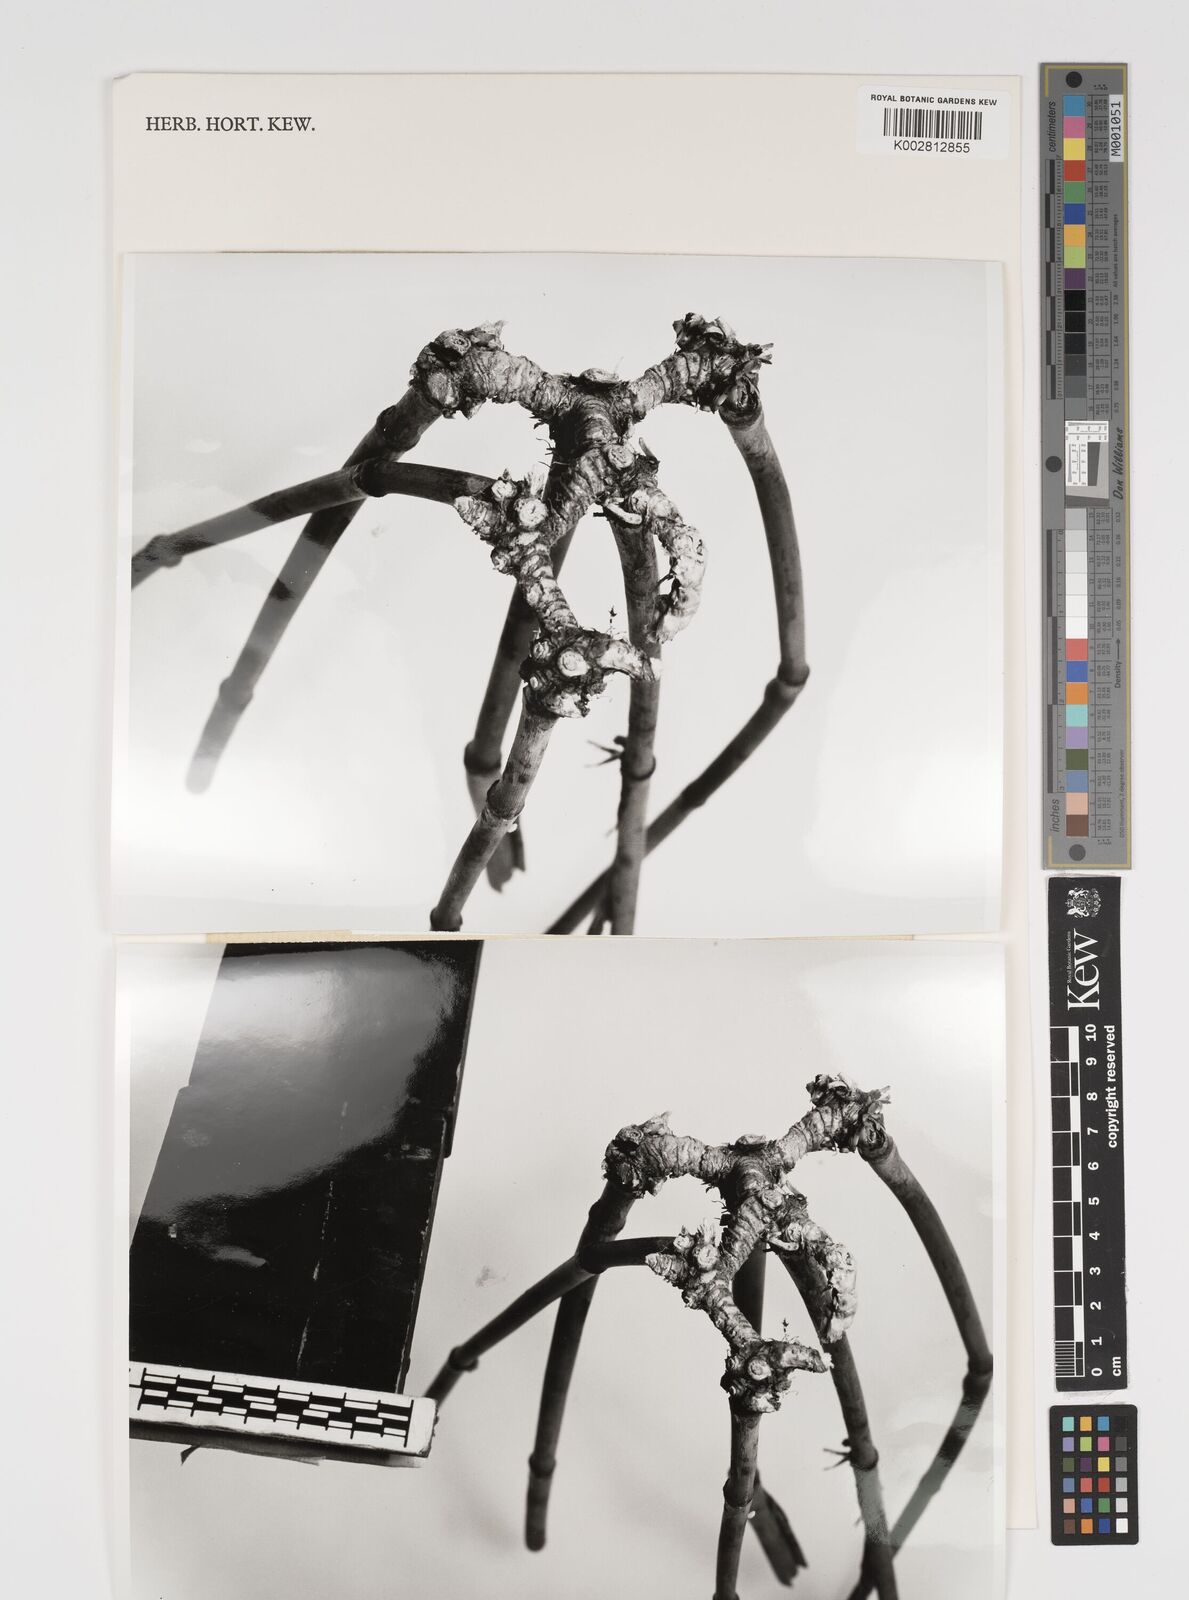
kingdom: Plantae
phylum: Tracheophyta
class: Liliopsida
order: Poales
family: Poaceae
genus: Kuruna
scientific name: Kuruna walkeriana
